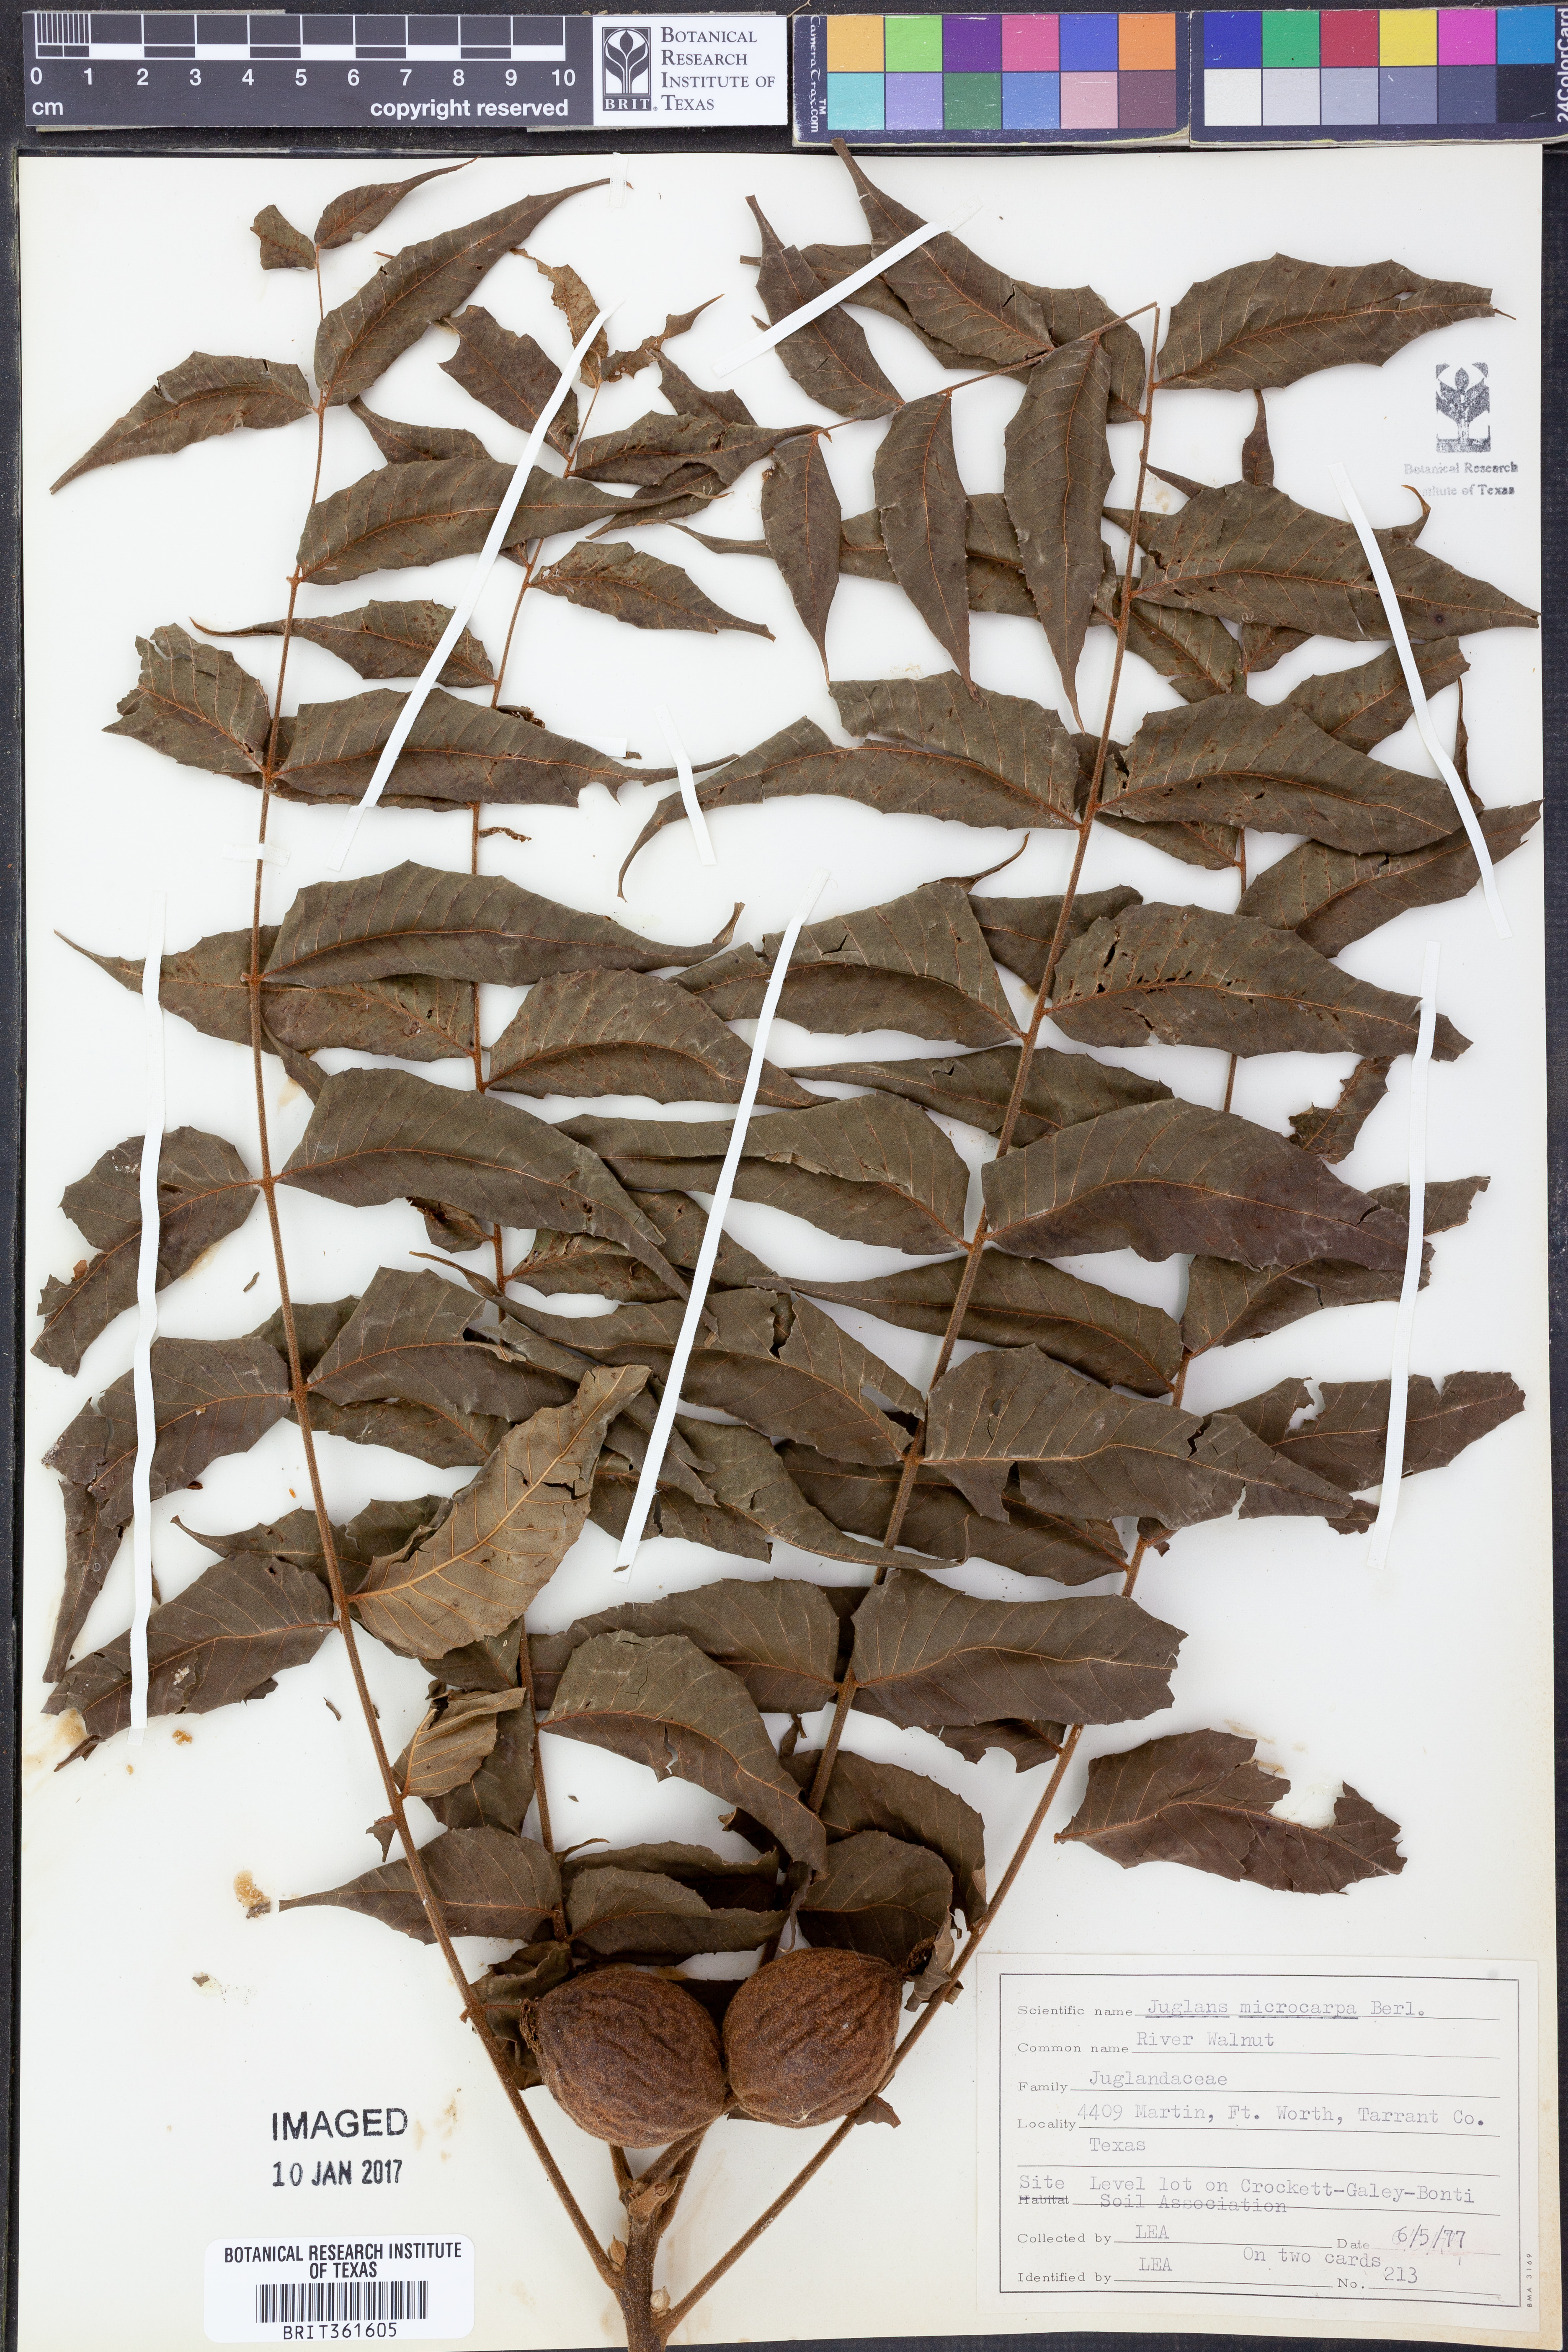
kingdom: Plantae
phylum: Tracheophyta
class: Magnoliopsida
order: Fagales
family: Juglandaceae
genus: Juglans
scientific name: Juglans microcarpa
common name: Texas walnut
